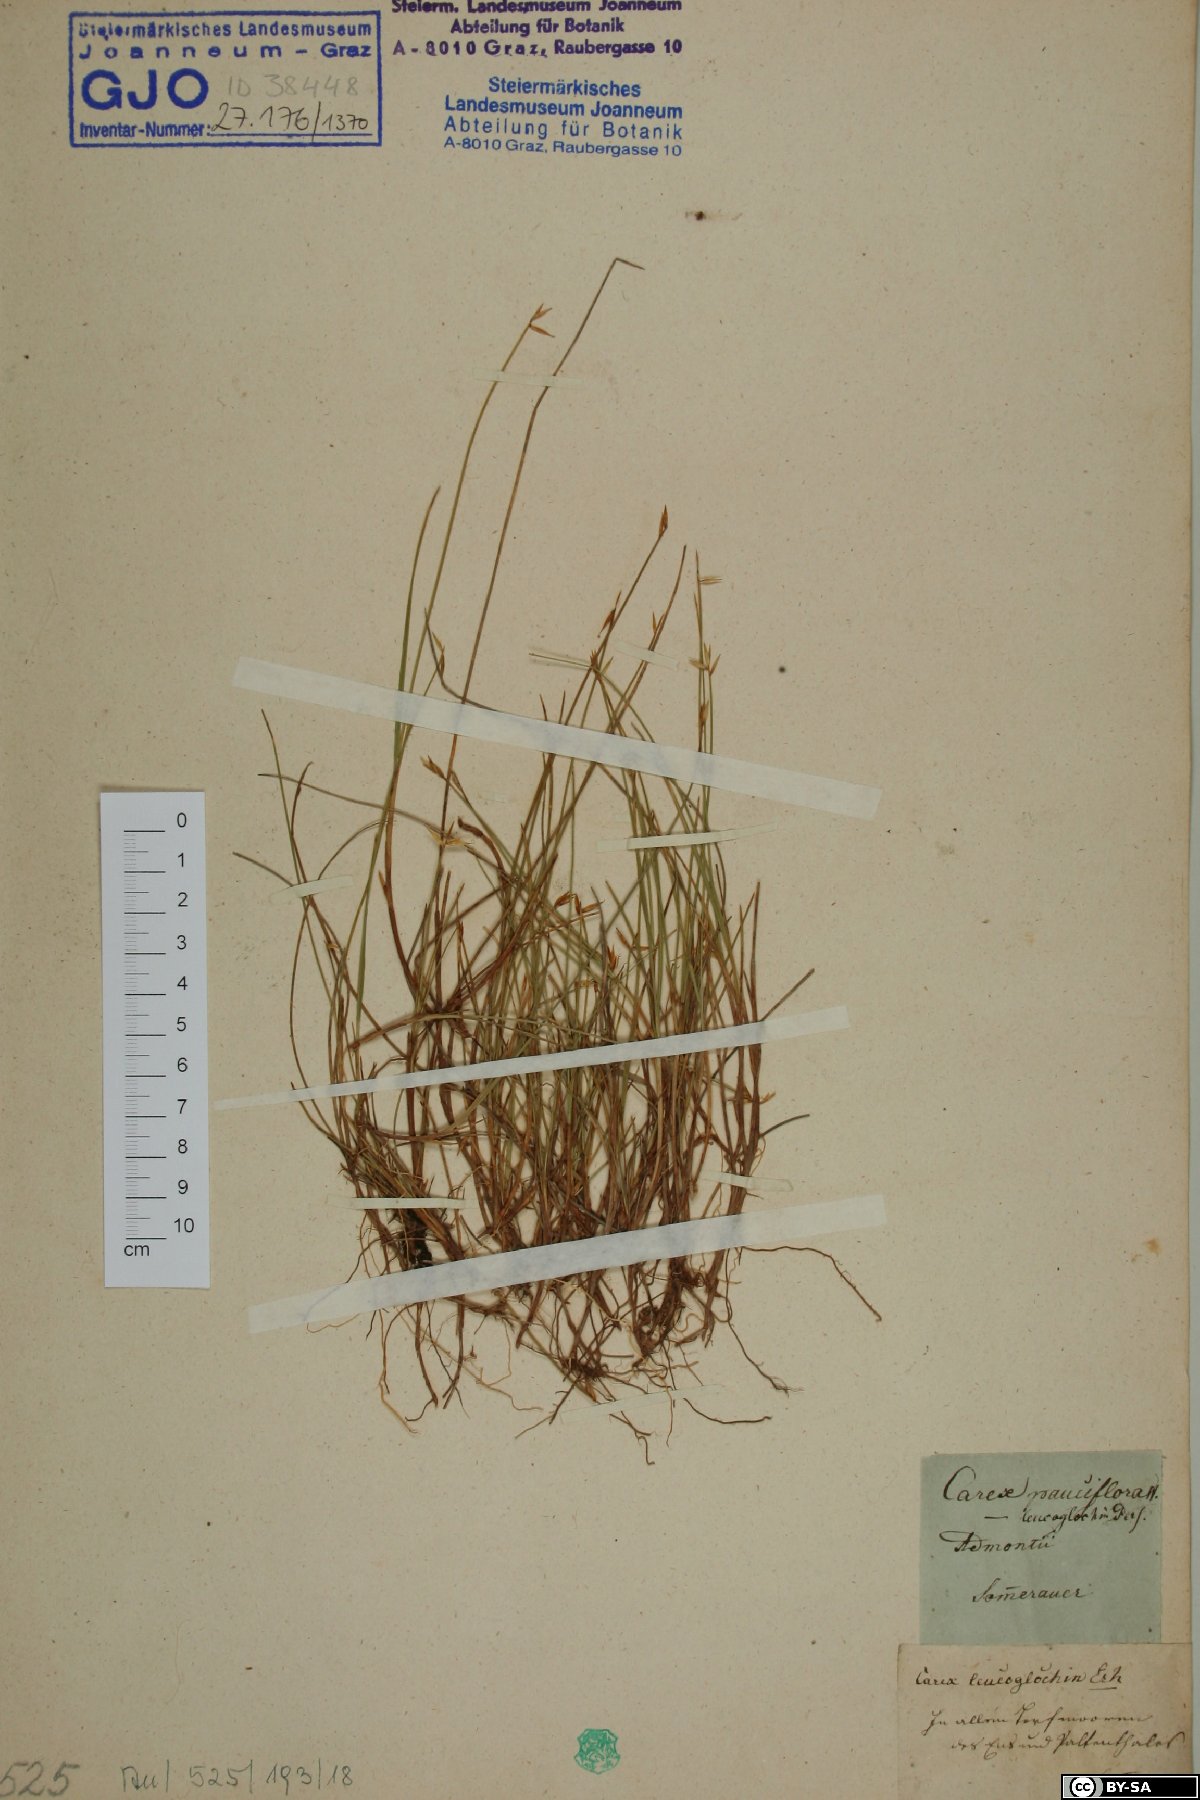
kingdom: Plantae
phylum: Tracheophyta
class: Liliopsida
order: Poales
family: Cyperaceae
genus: Carex
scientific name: Carex pauciflora
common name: Few-flowered sedge
